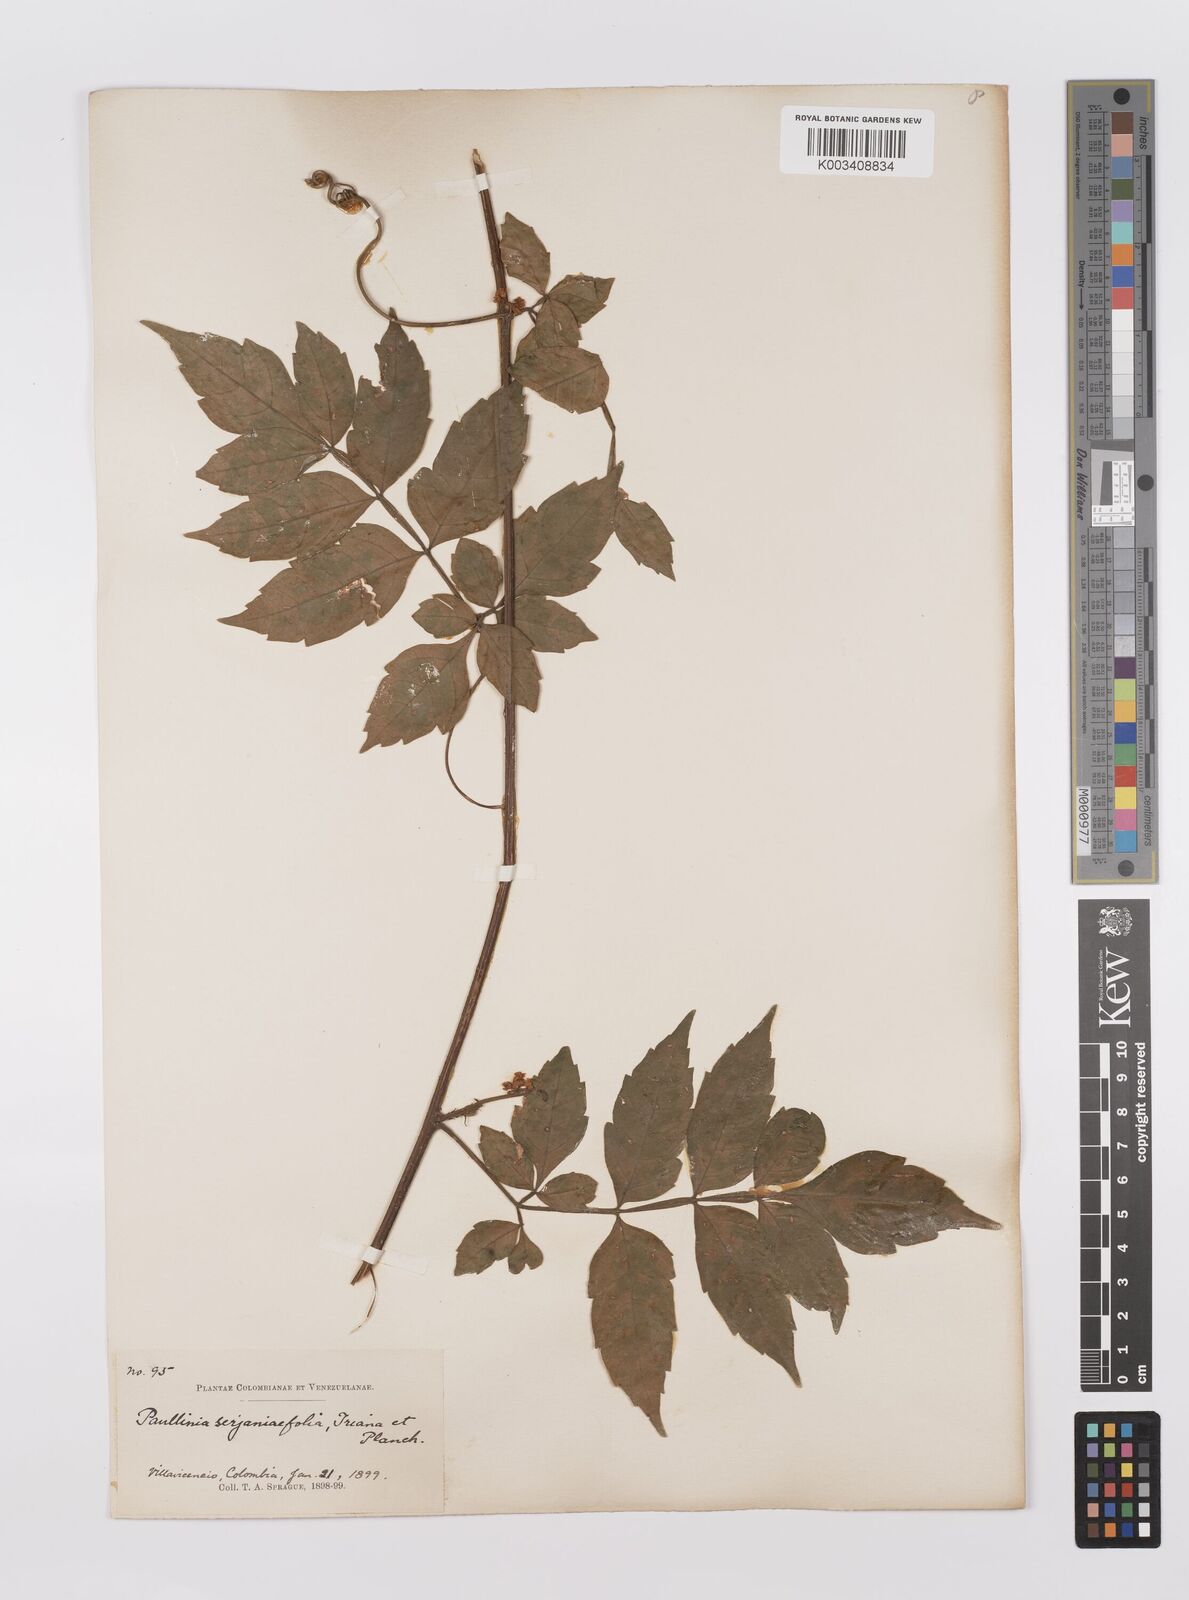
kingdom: Plantae
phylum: Tracheophyta
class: Magnoliopsida
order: Sapindales
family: Sapindaceae
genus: Paullinia
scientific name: Paullinia serjaniifolia
